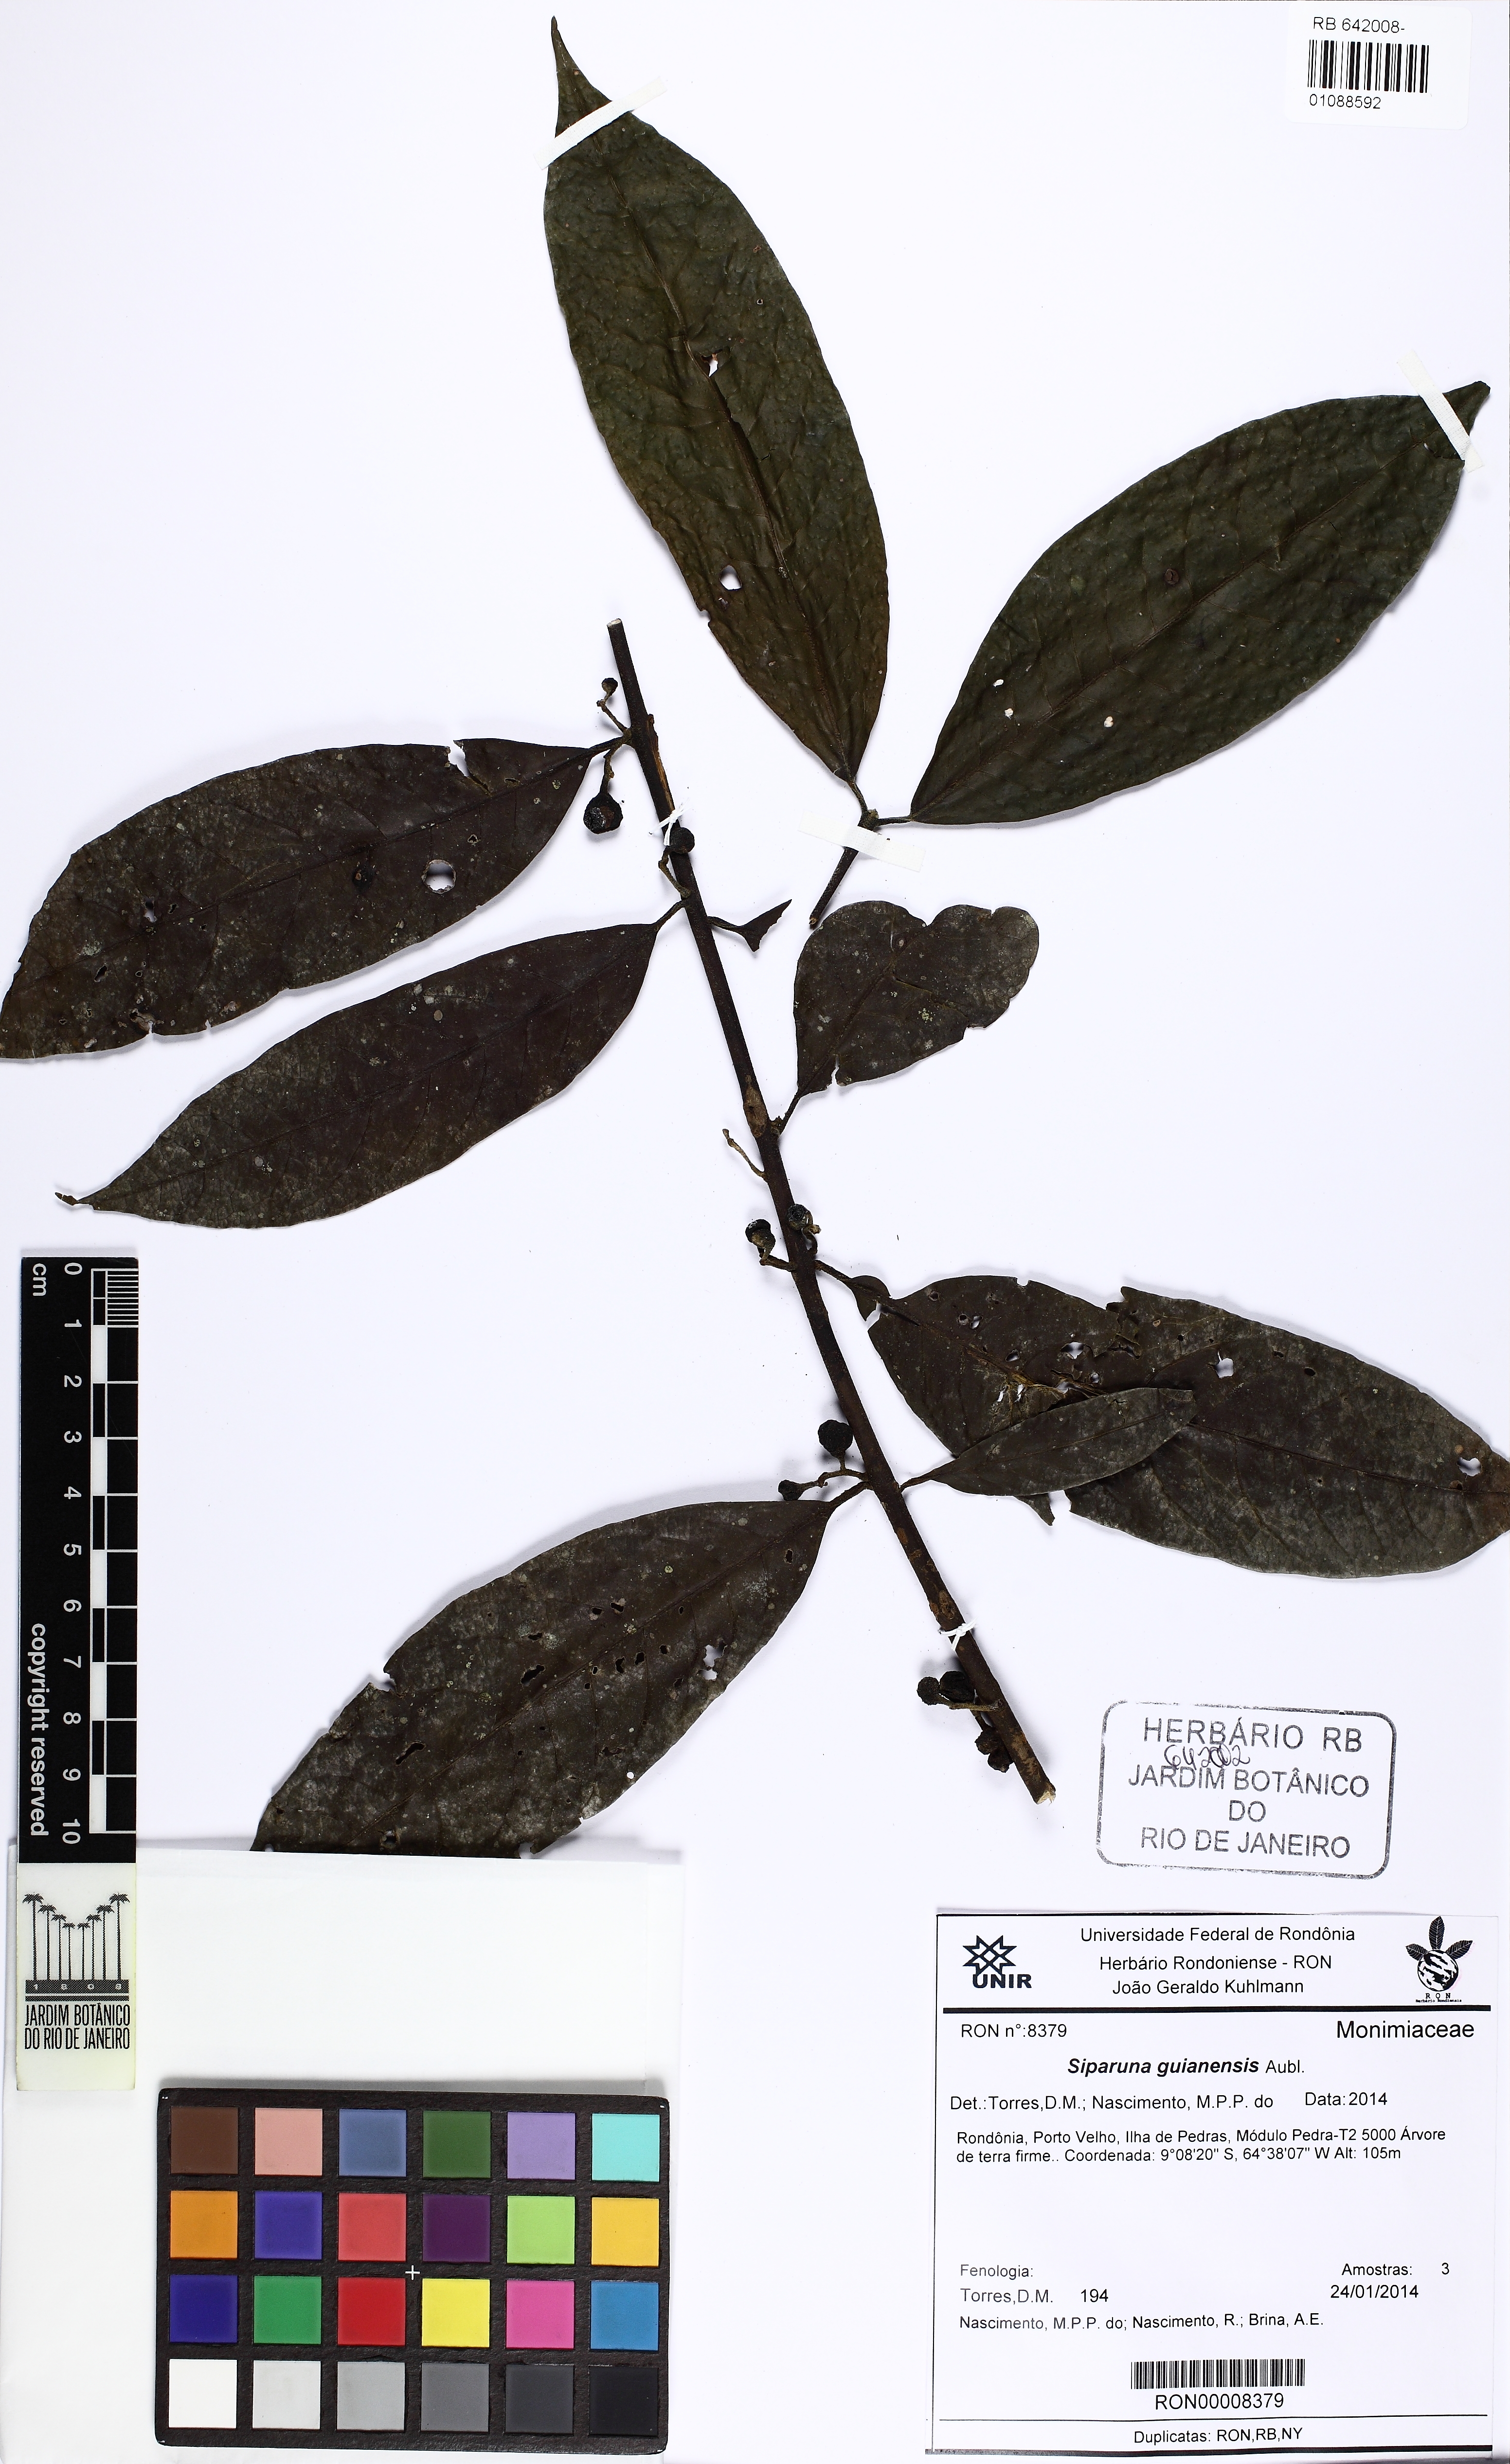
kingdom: Plantae
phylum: Tracheophyta
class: Magnoliopsida
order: Laurales
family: Siparunaceae
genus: Siparuna
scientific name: Siparuna guianensis
